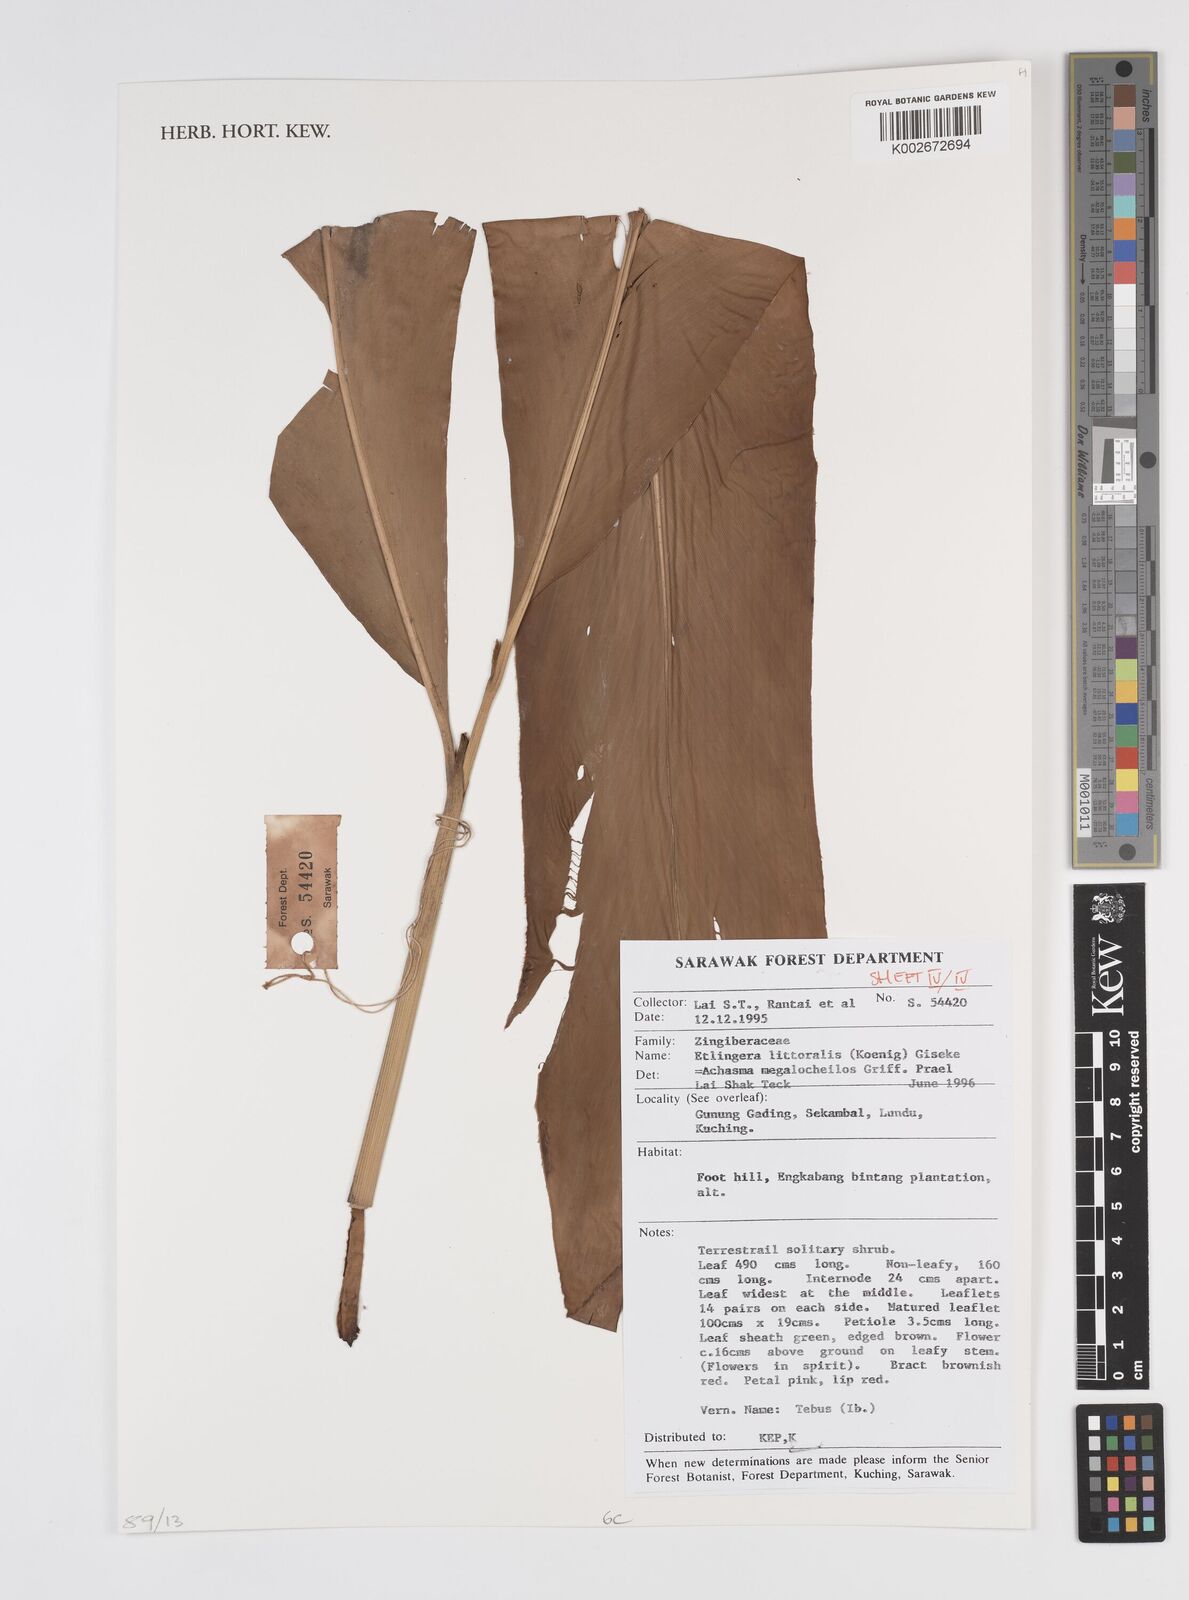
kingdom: Plantae
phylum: Tracheophyta
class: Liliopsida
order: Zingiberales
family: Zingiberaceae
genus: Etlingera
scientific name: Etlingera littoralis
